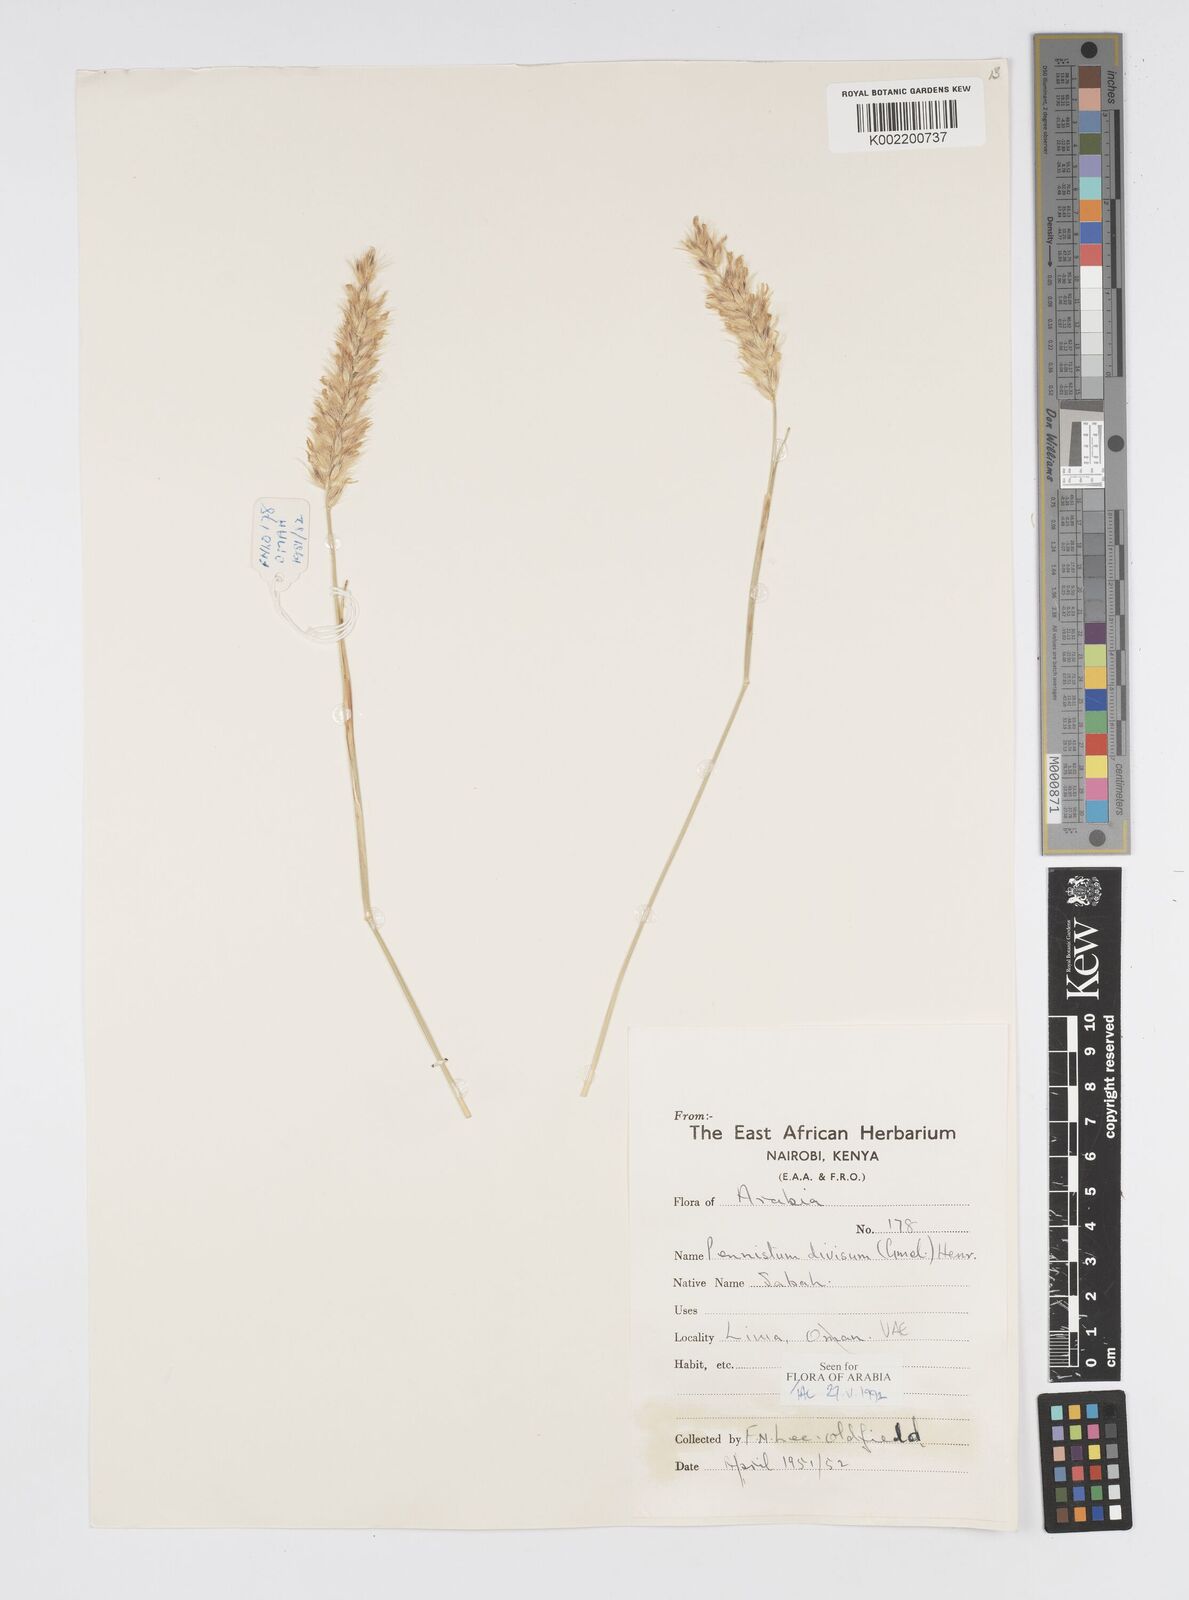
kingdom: Plantae
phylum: Tracheophyta
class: Liliopsida
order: Poales
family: Poaceae
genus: Cenchrus
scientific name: Cenchrus divisus
